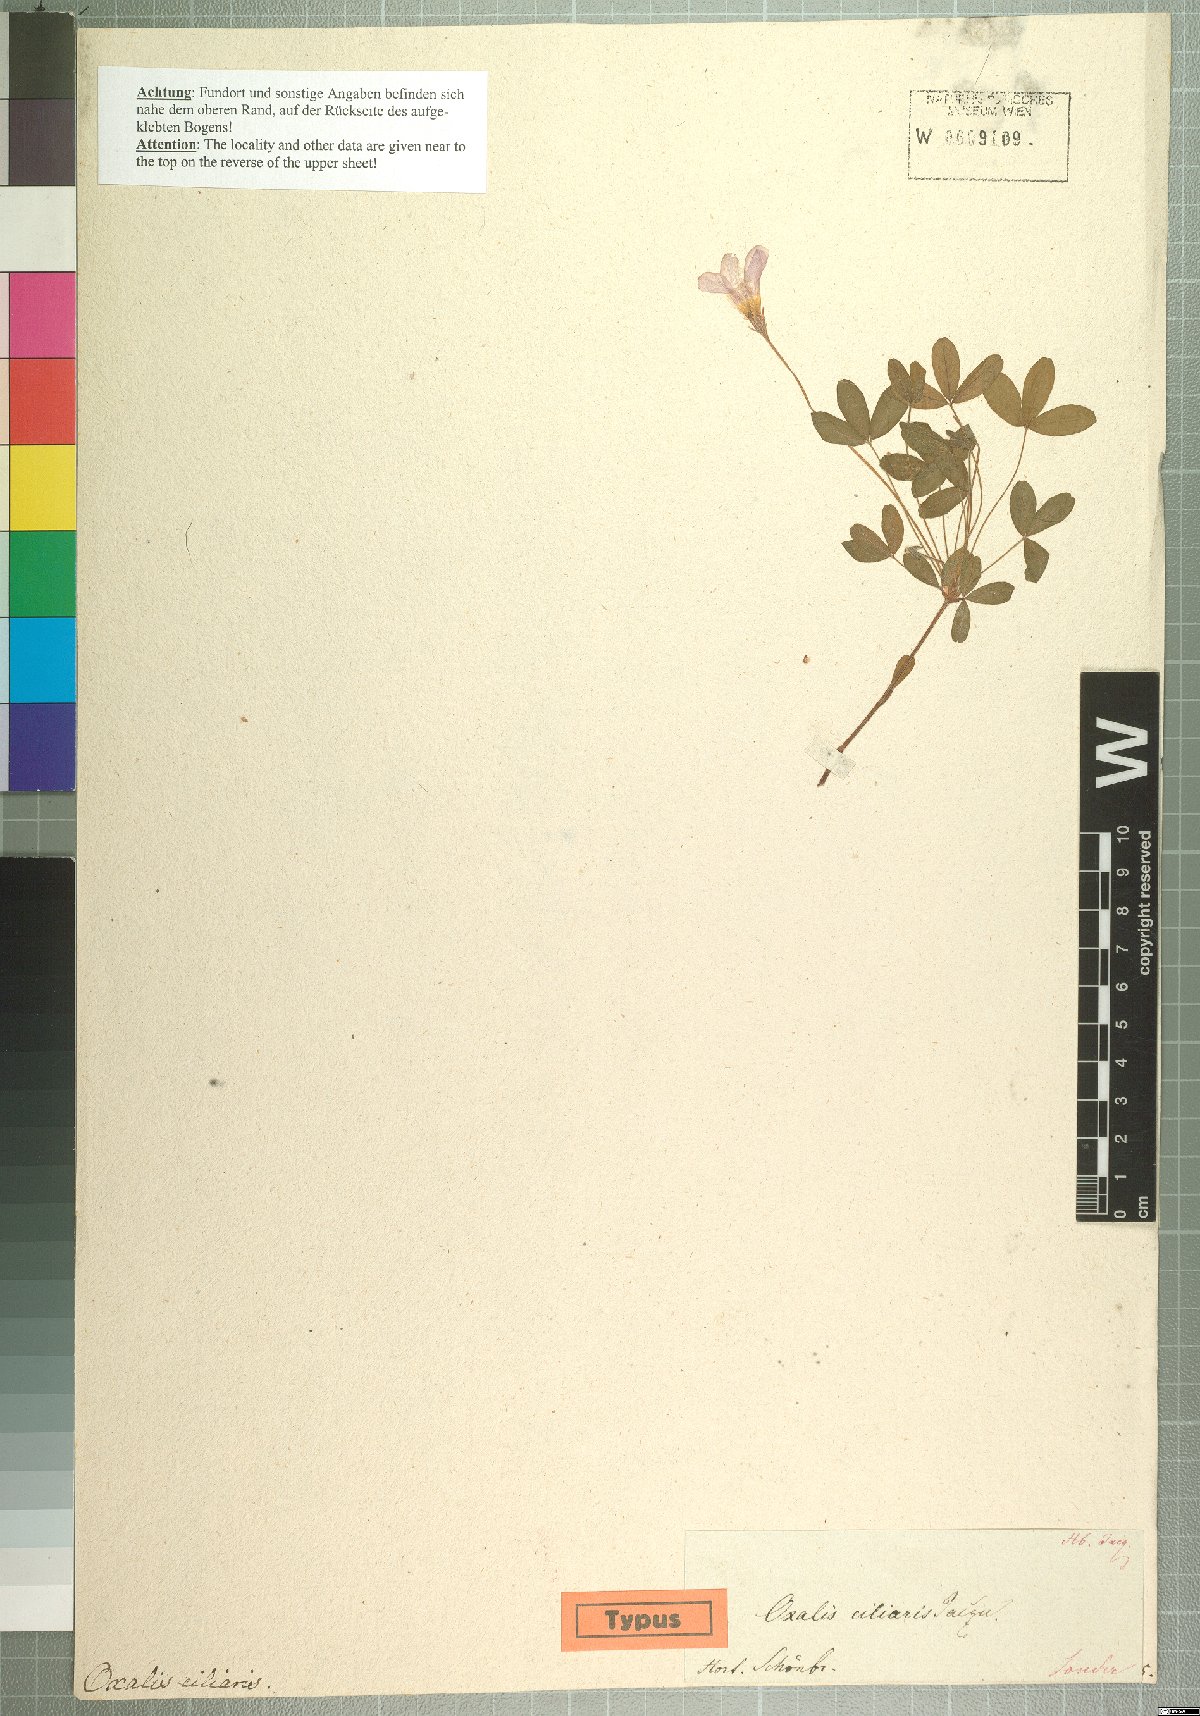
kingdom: Plantae
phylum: Tracheophyta
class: Magnoliopsida
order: Oxalidales
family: Oxalidaceae
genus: Oxalis
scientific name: Oxalis ciliaris
